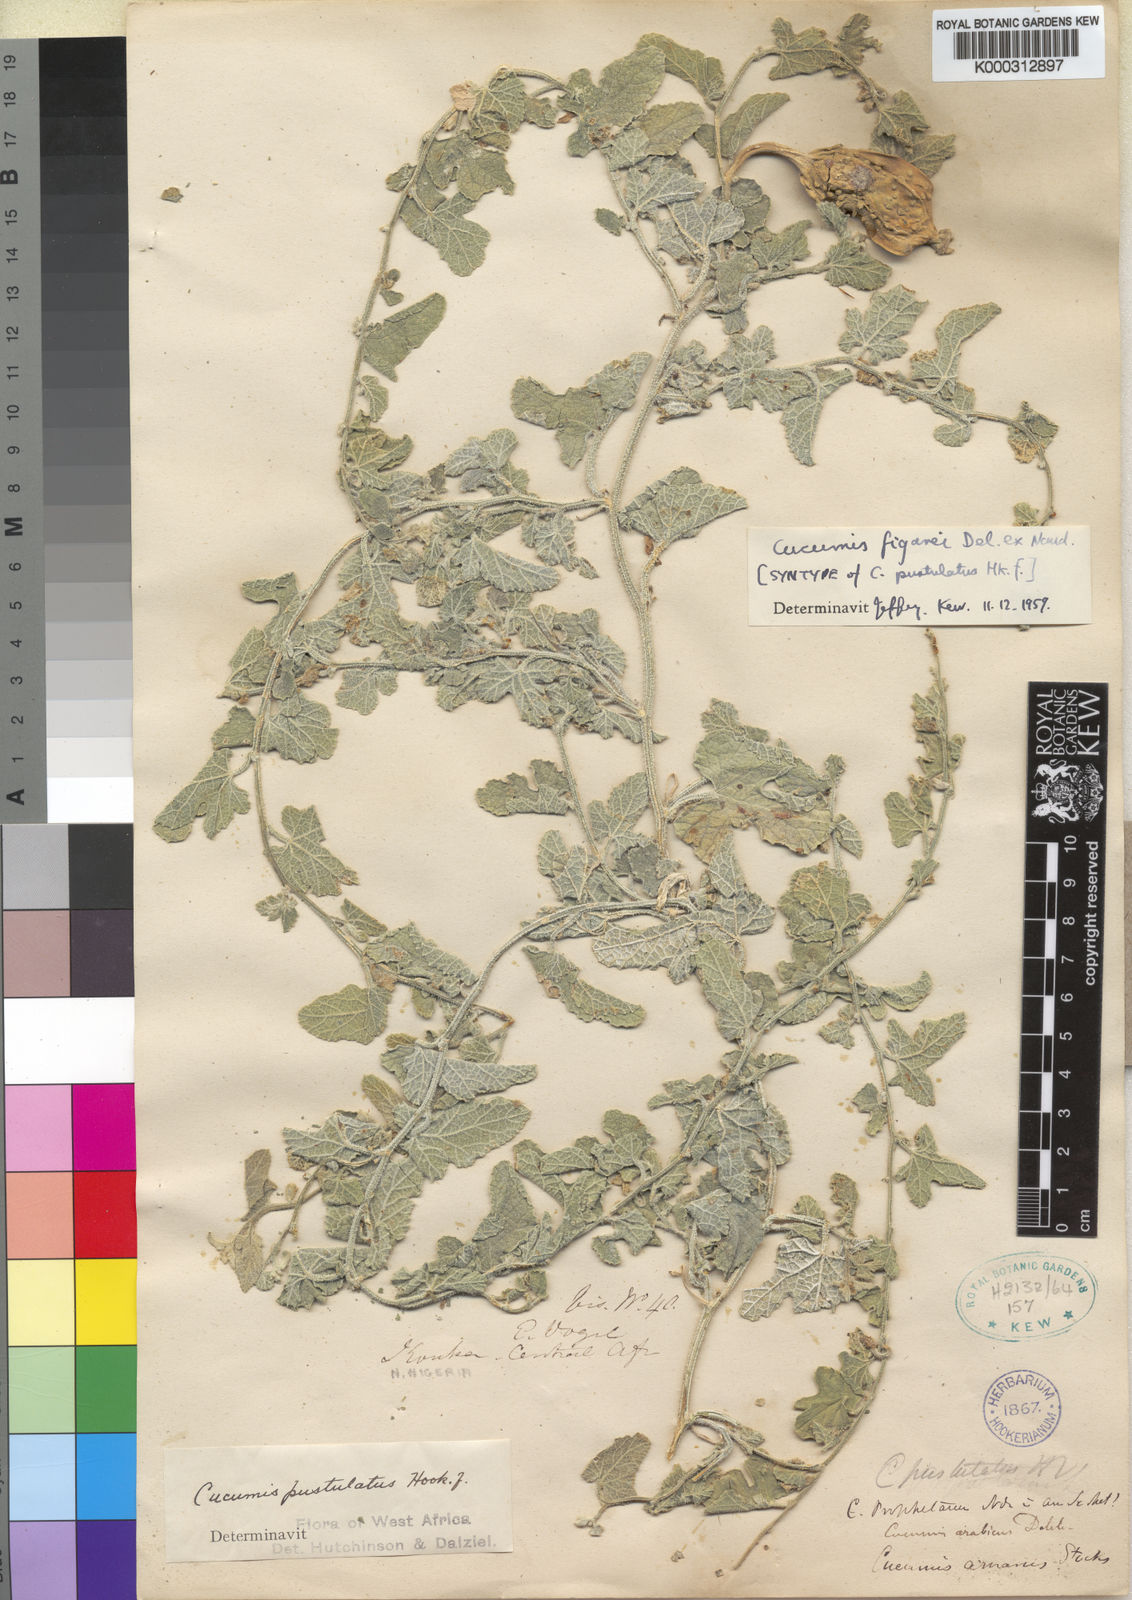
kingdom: Plantae
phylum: Tracheophyta
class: Magnoliopsida
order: Cucurbitales
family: Cucurbitaceae
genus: Cucumis
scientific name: Cucumis pustulatus
